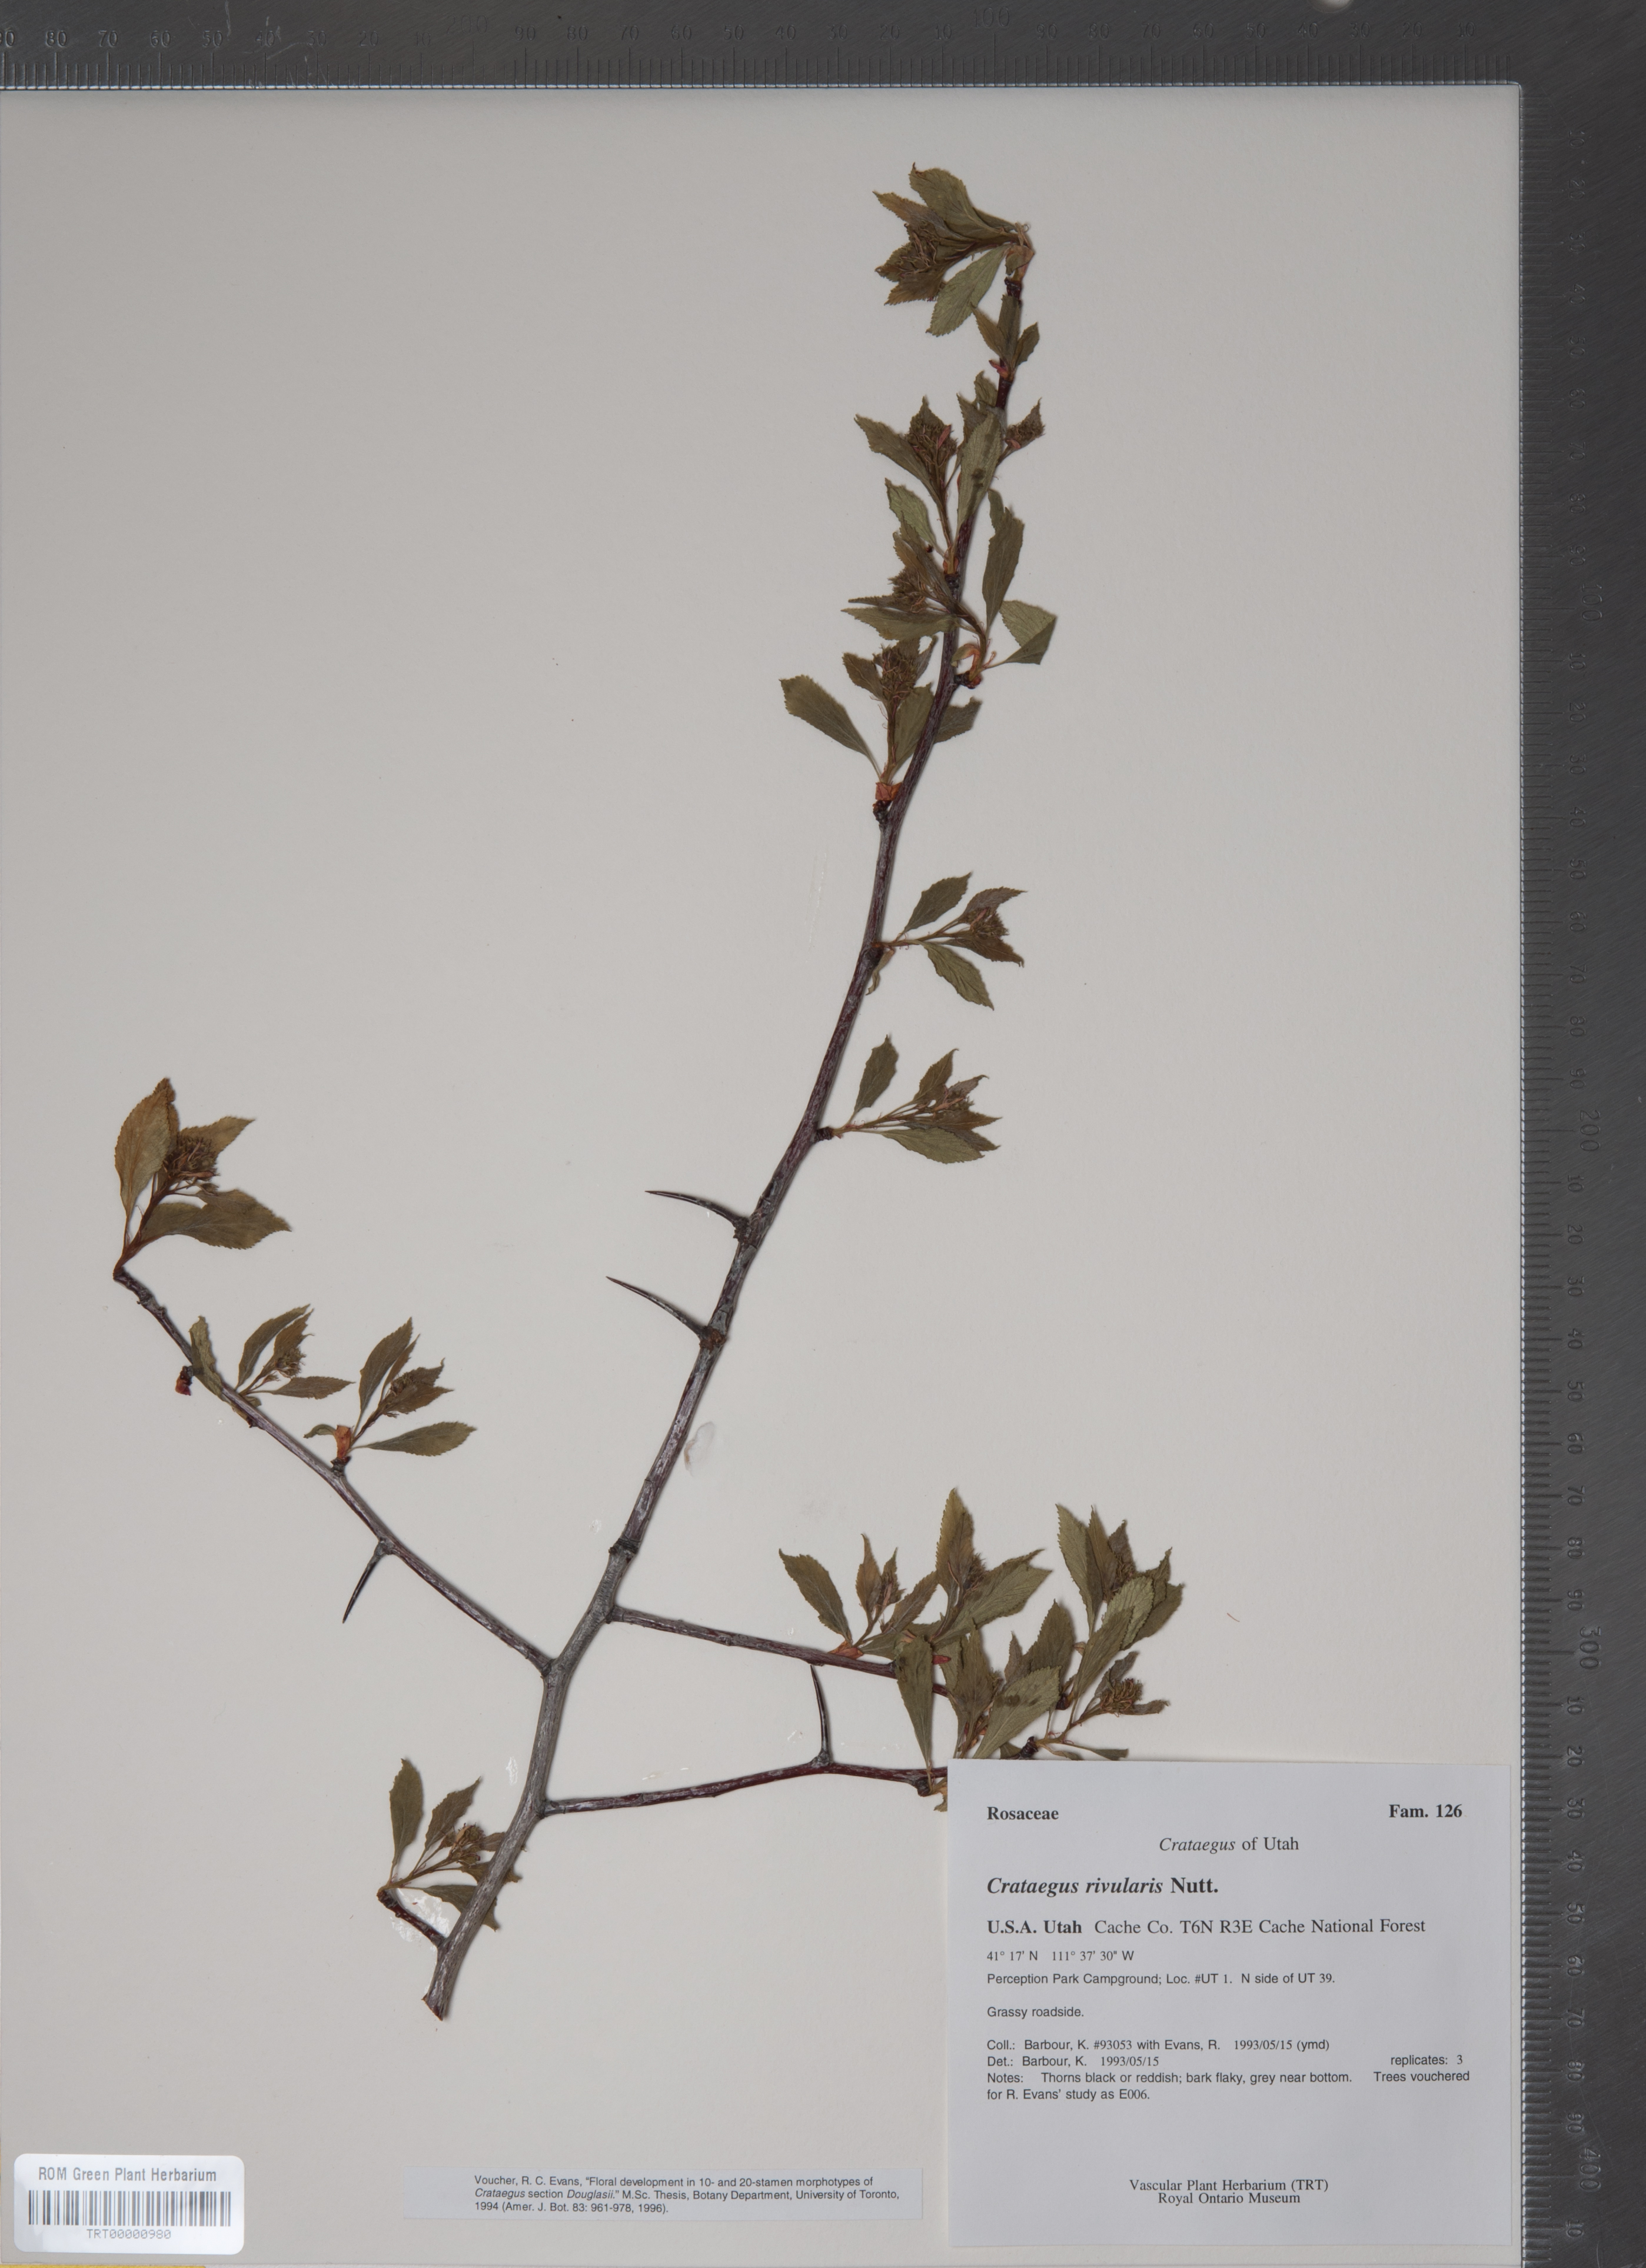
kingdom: Plantae
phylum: Tracheophyta
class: Magnoliopsida
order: Rosales
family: Rosaceae
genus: Crataegus
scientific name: Crataegus rivularis
